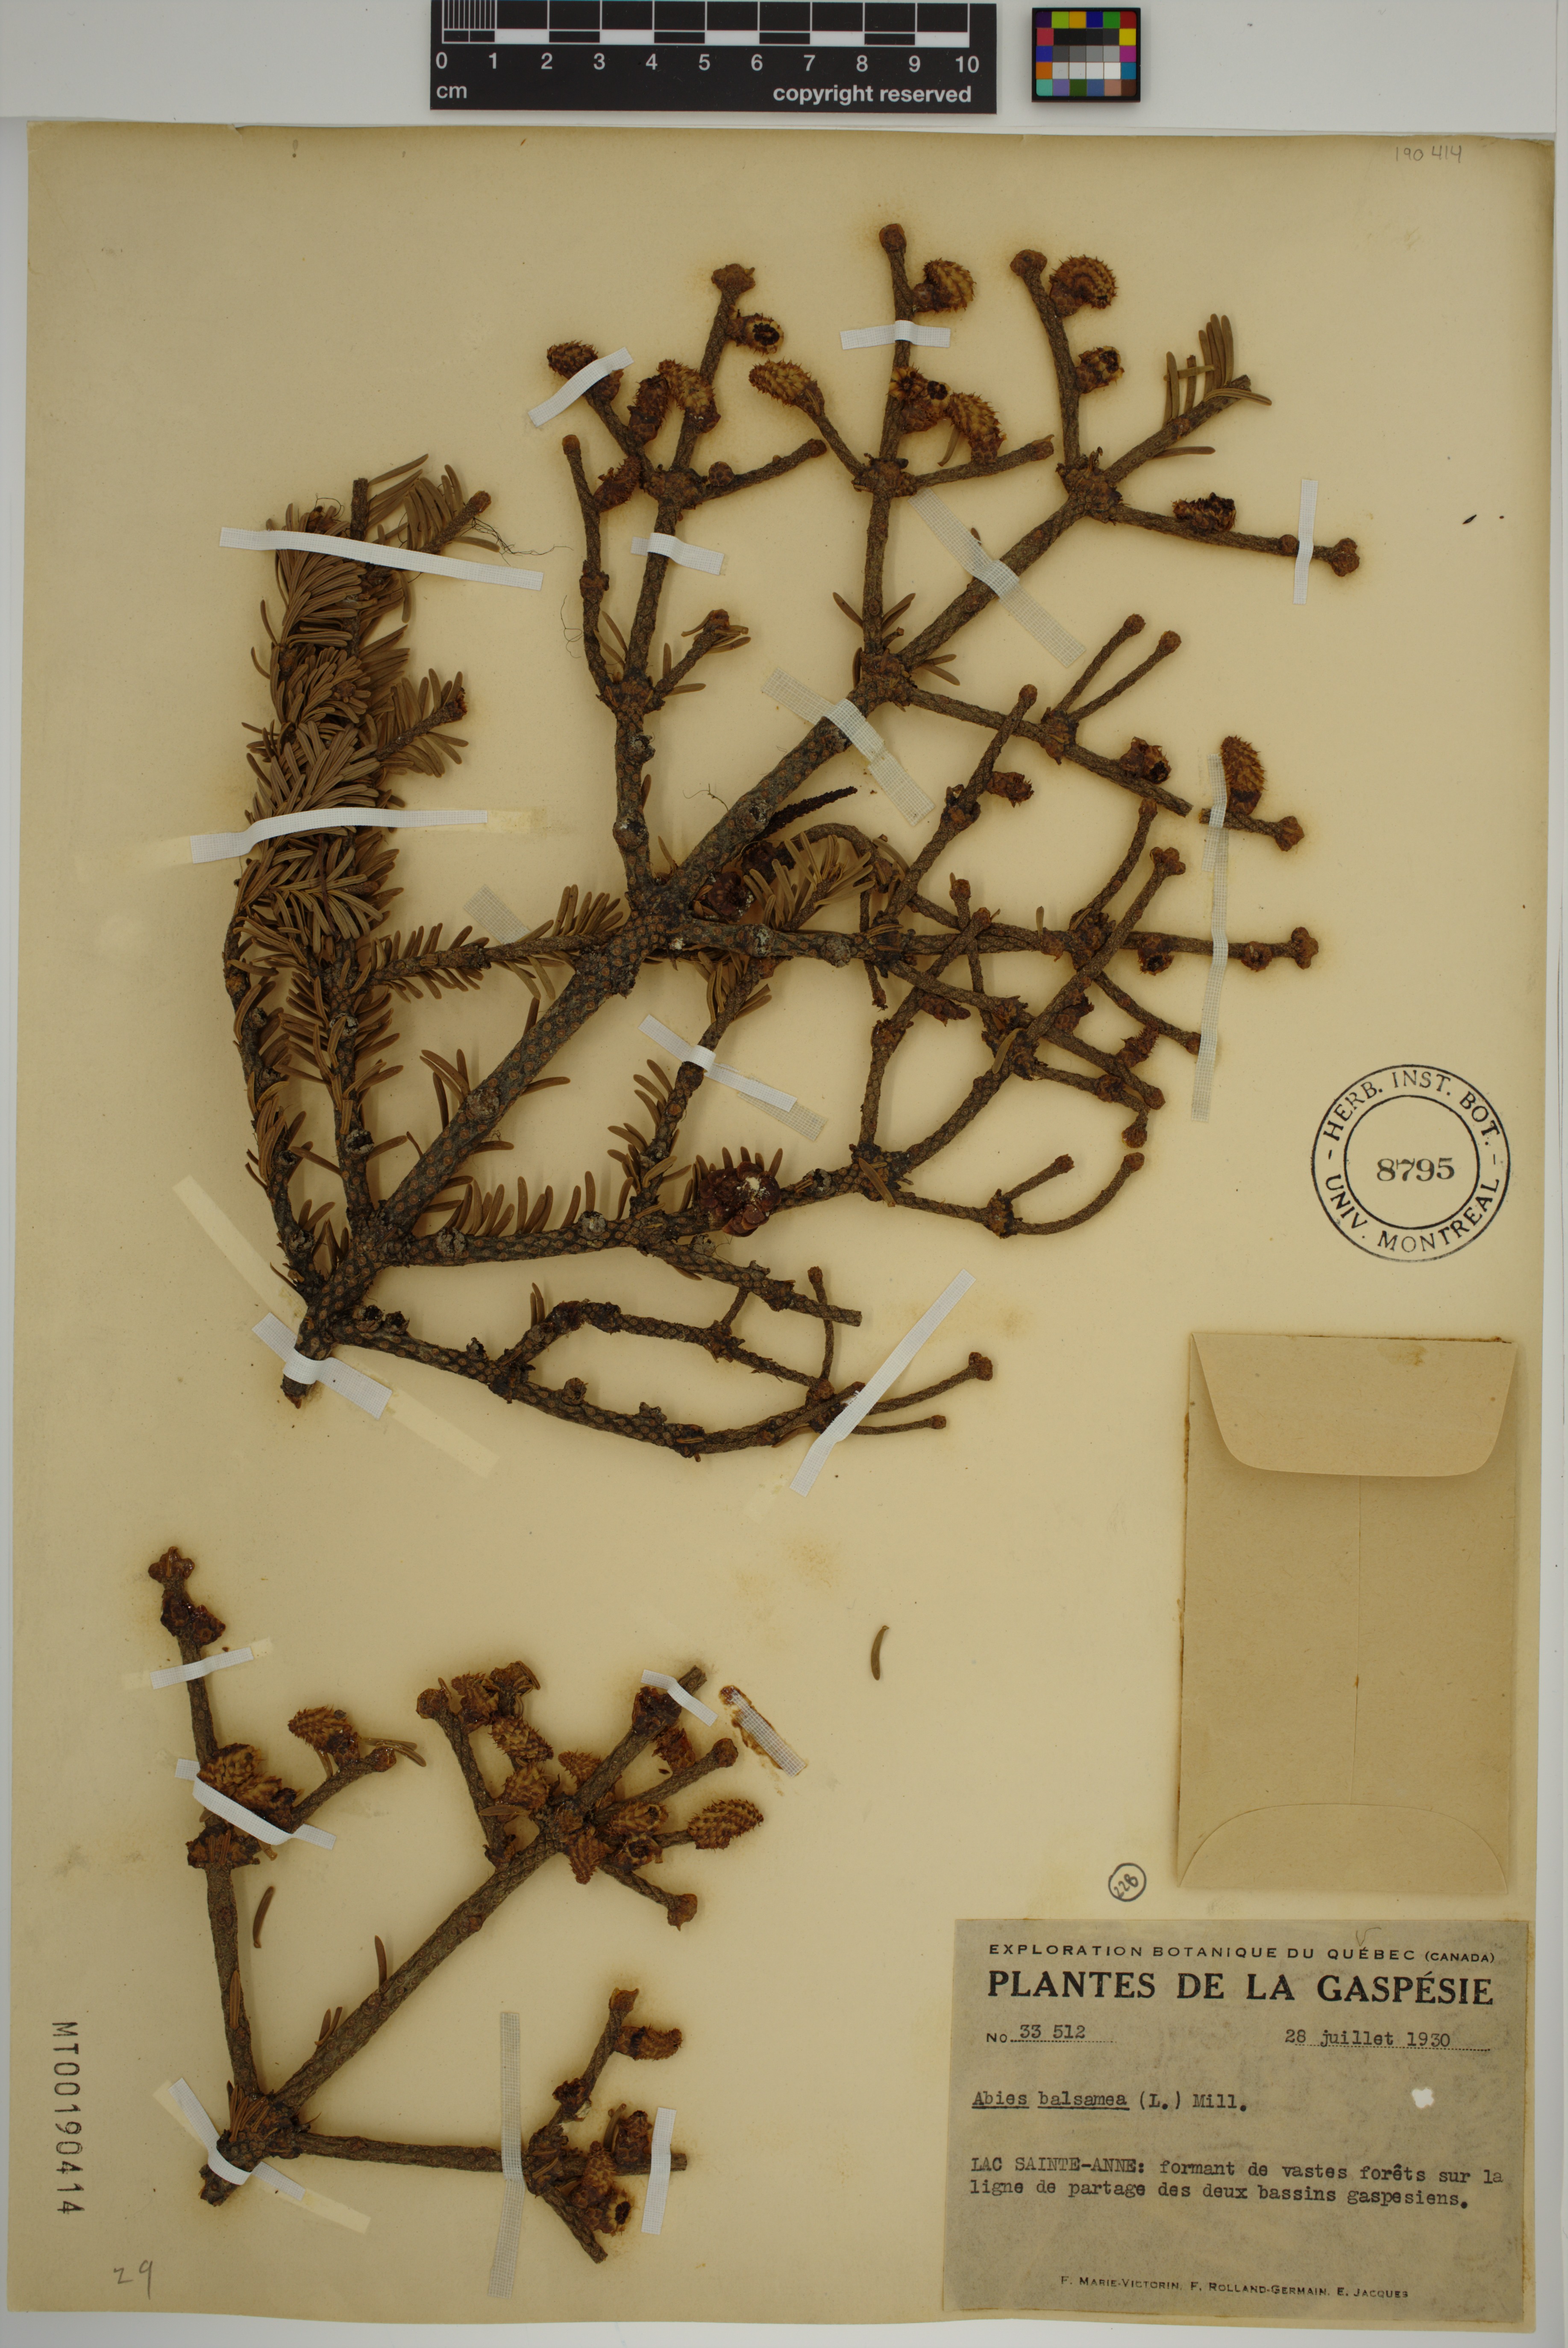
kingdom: Plantae
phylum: Tracheophyta
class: Pinopsida
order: Pinales
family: Pinaceae
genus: Abies
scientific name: Abies balsamea
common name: Balsam fir
